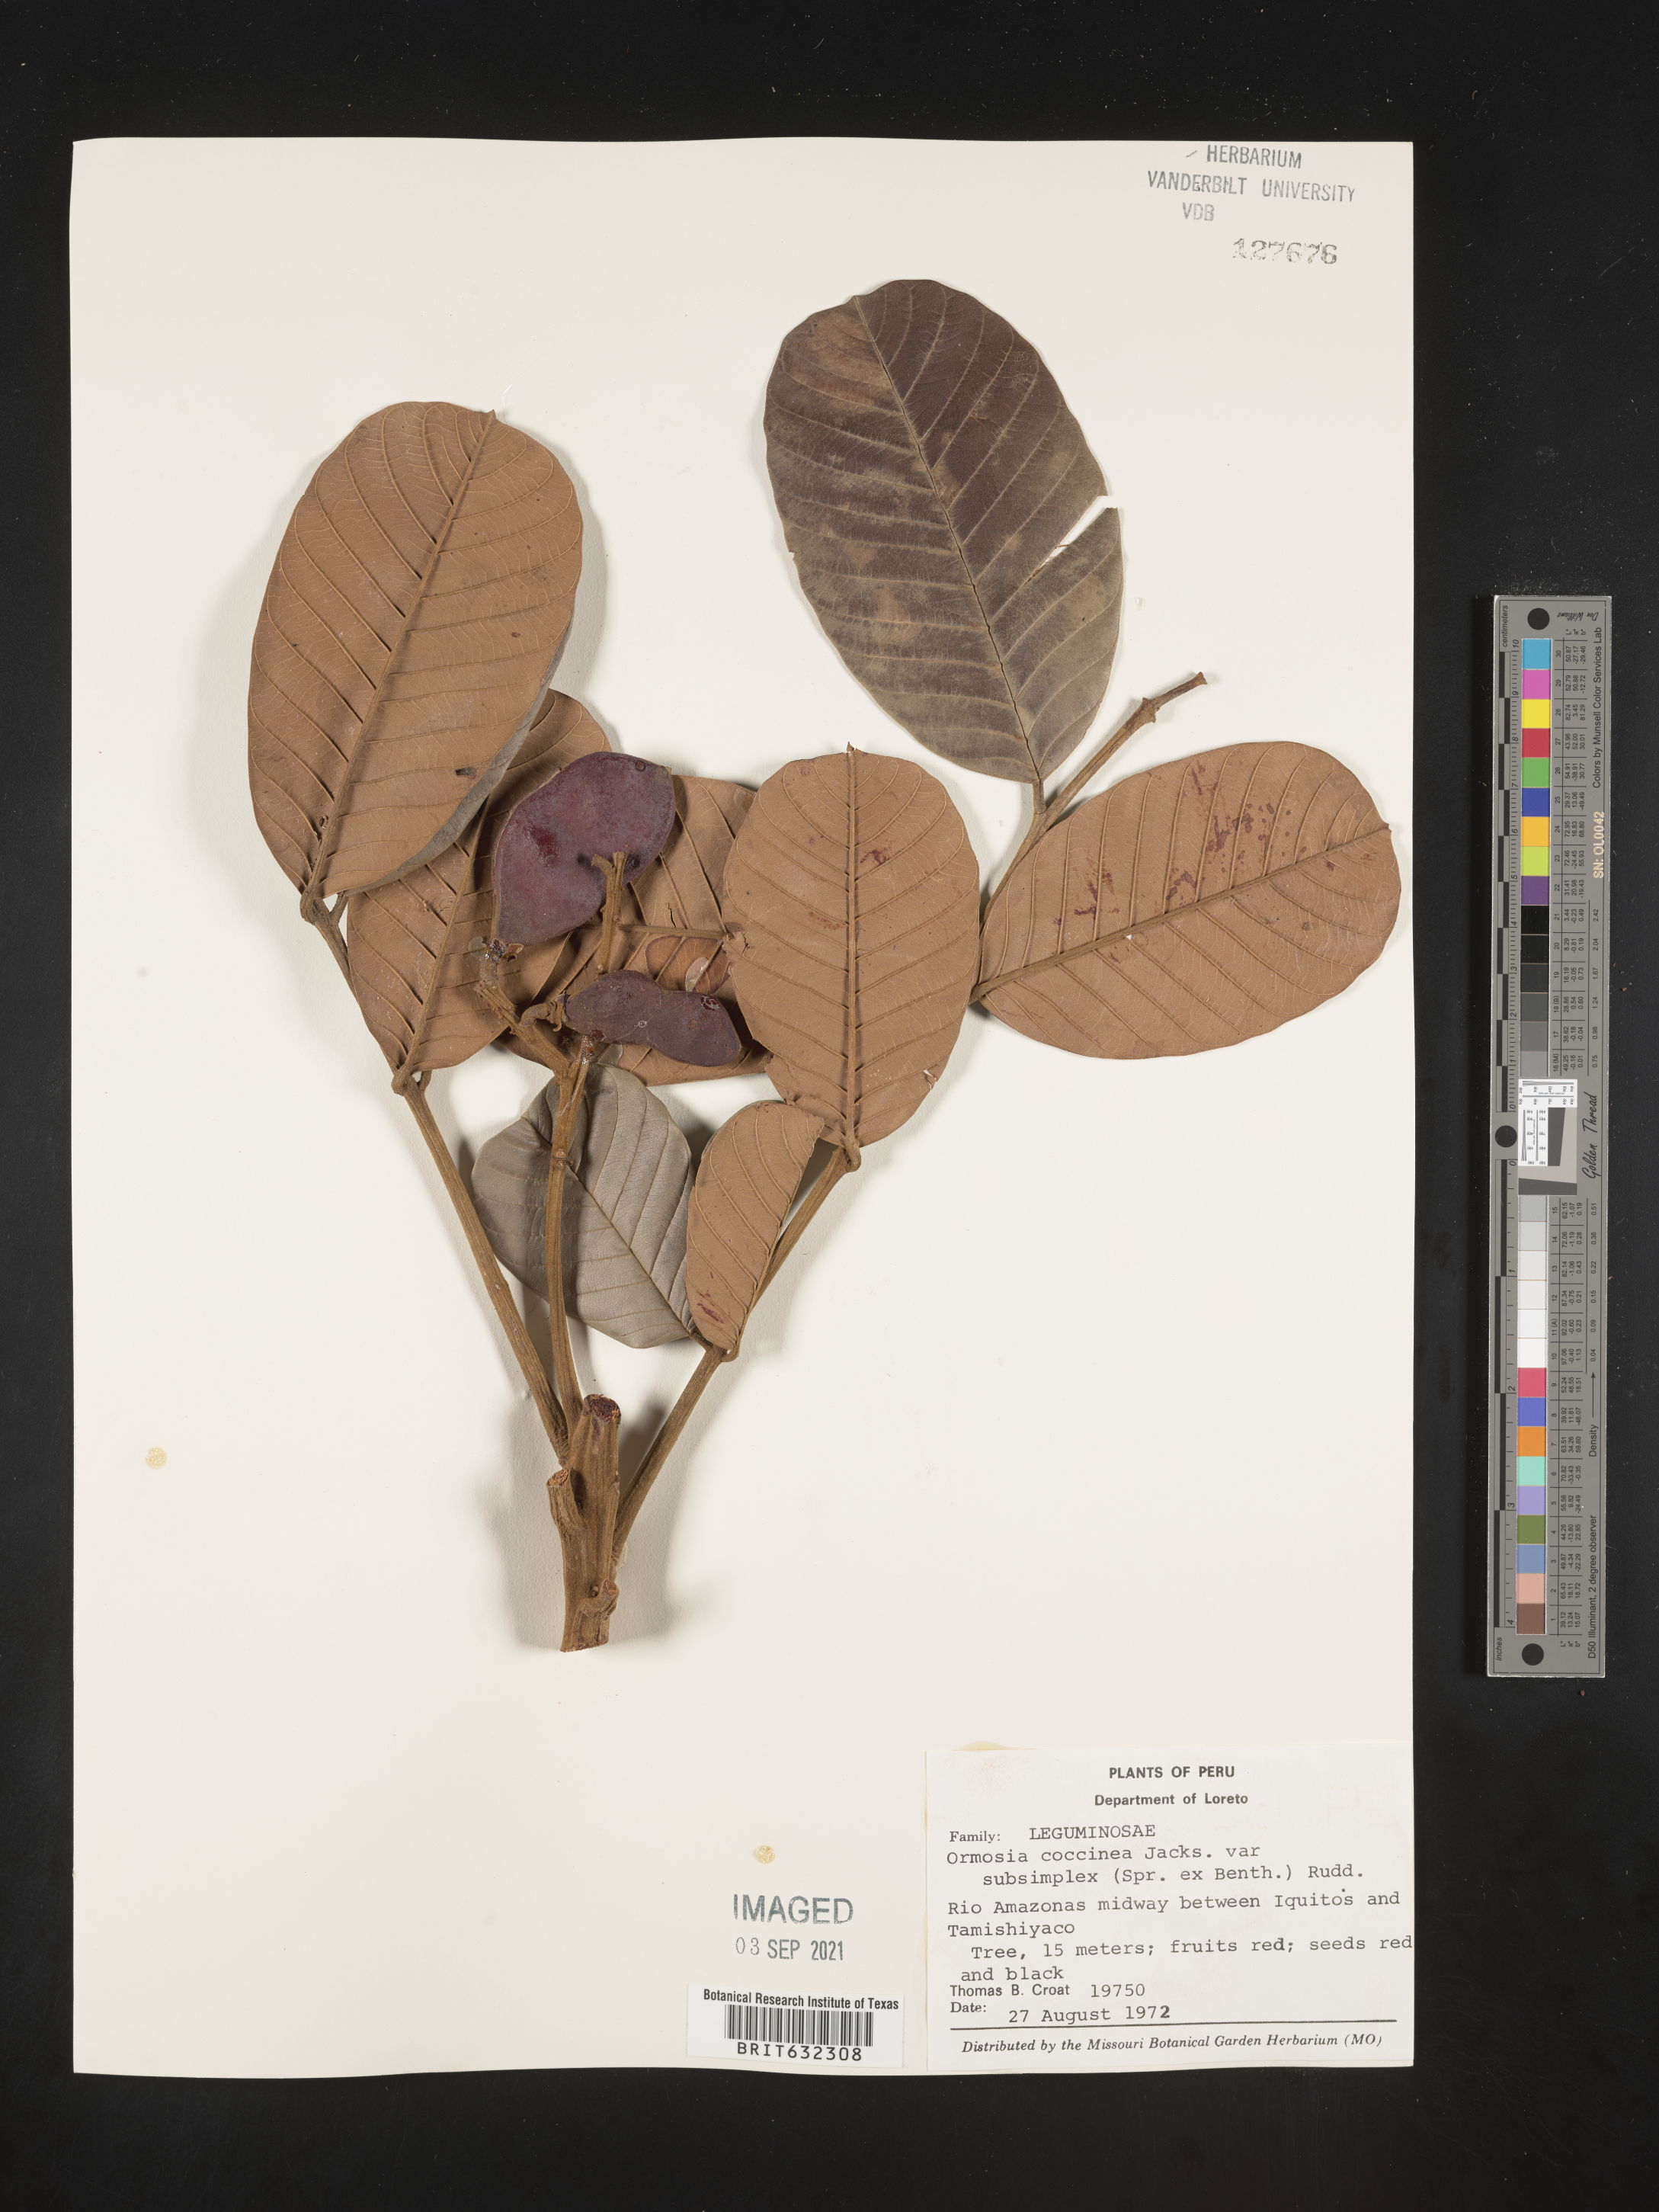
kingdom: Plantae
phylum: Tracheophyta
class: Magnoliopsida
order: Fabales
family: Fabaceae
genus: Ormosia
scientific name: Ormosia
